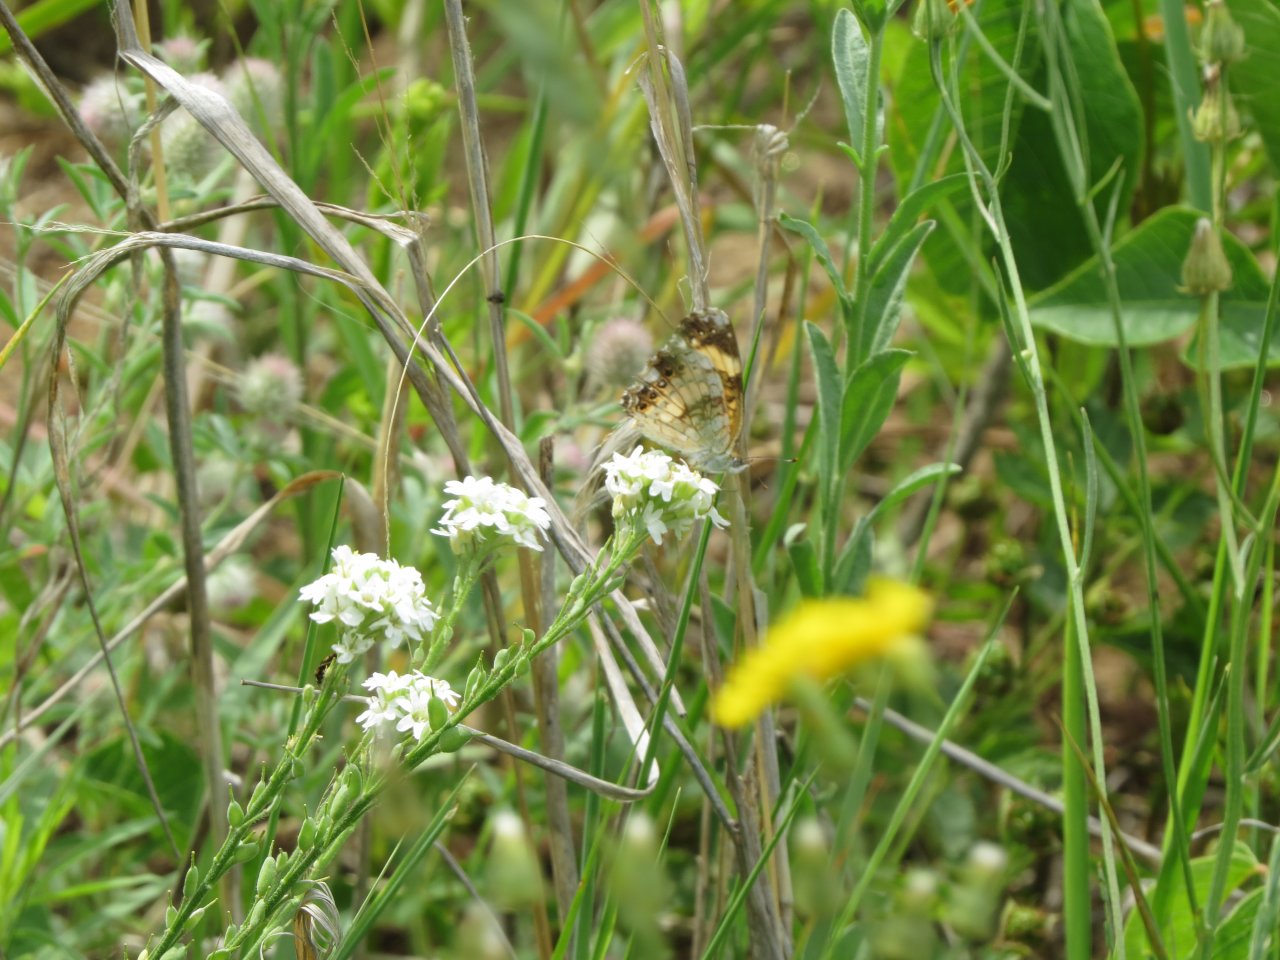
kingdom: Animalia
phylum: Arthropoda
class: Insecta
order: Lepidoptera
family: Nymphalidae
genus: Chlosyne
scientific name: Chlosyne nycteis
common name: Silvery Checkerspot
